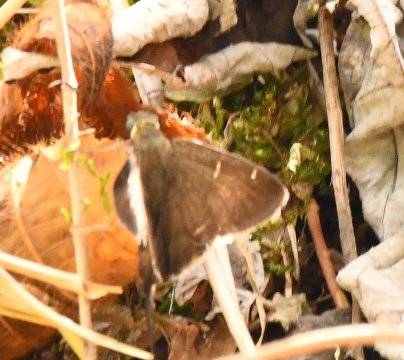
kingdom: Animalia
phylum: Arthropoda
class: Insecta
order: Lepidoptera
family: Hesperiidae
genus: Urbanus
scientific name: Urbanus simplicius
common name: Plain Longtail
